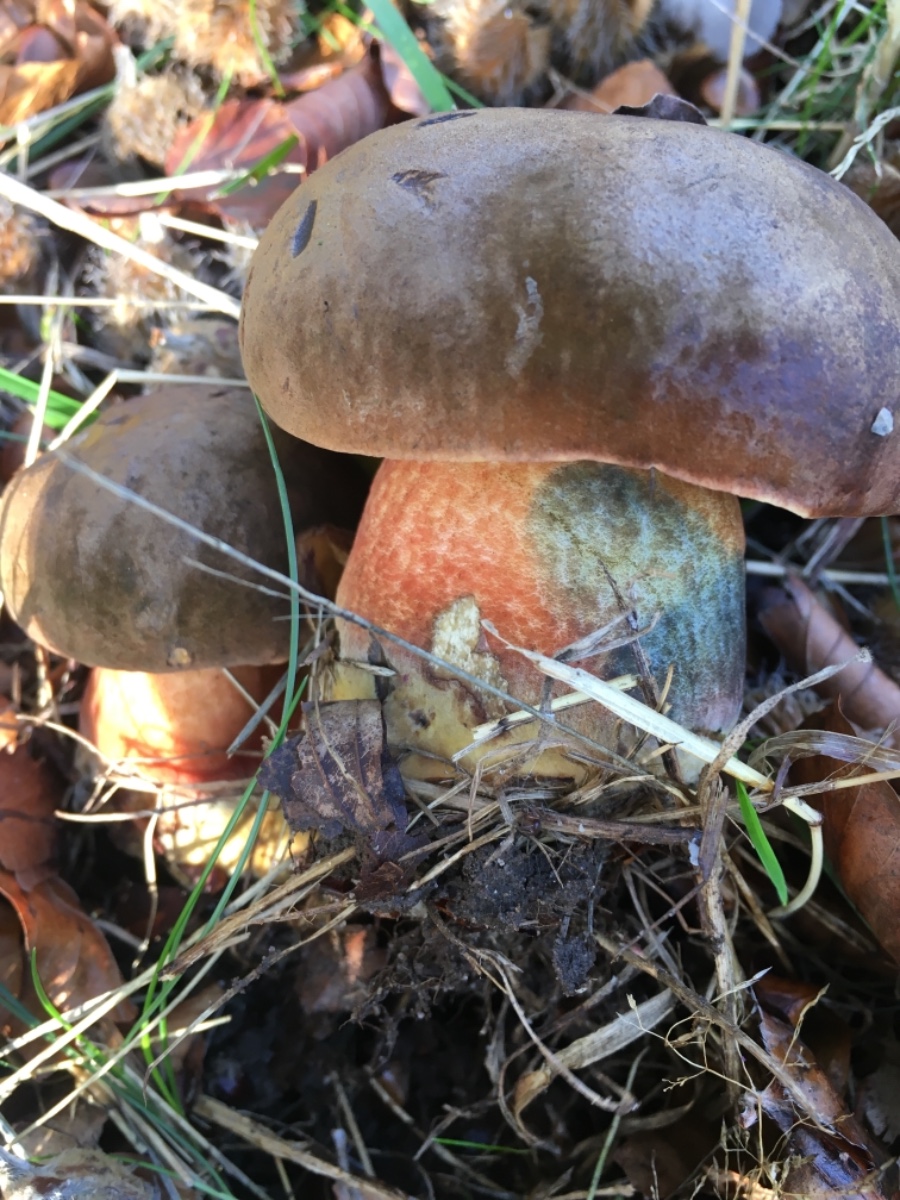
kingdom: Fungi
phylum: Basidiomycota
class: Agaricomycetes
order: Boletales
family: Boletaceae
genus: Neoboletus
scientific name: Neoboletus erythropus
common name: punktstokket indigorørhat
